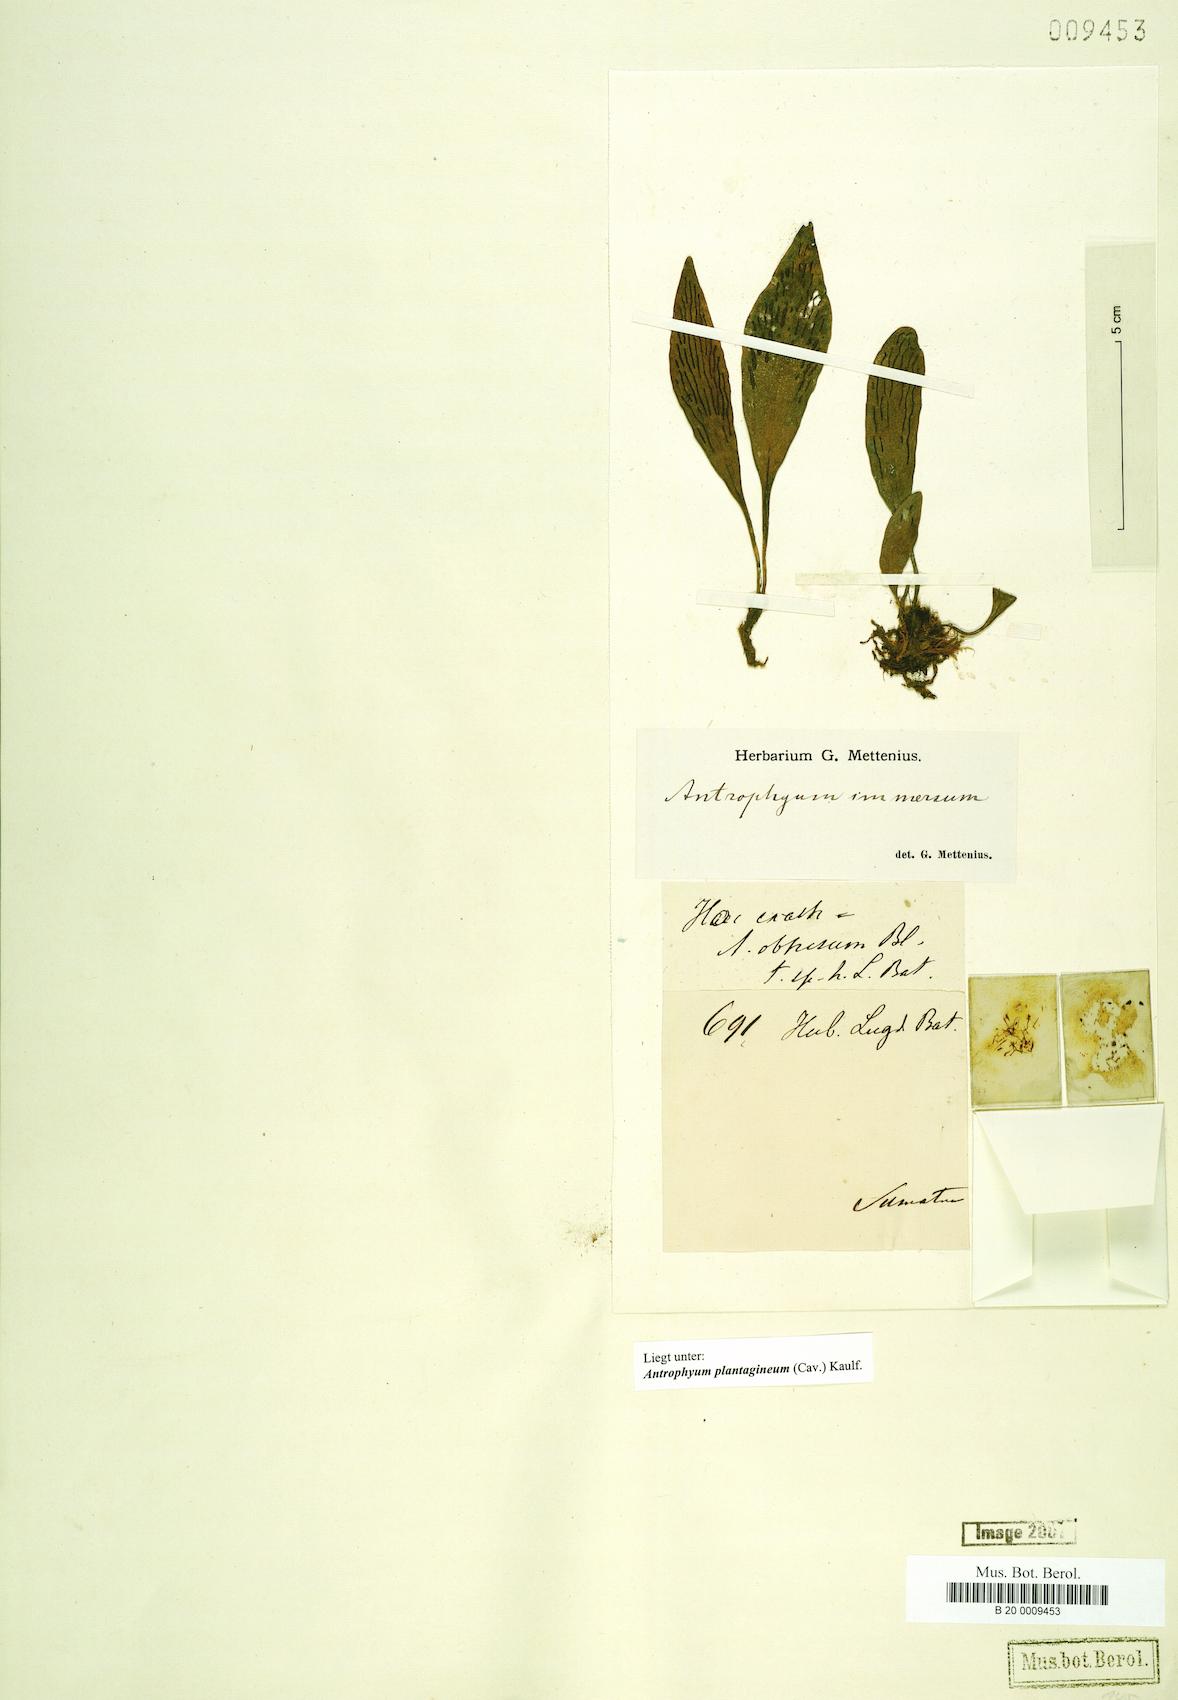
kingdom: Plantae
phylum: Tracheophyta
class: Polypodiopsida
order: Polypodiales
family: Pteridaceae
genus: Antrophyum
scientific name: Antrophyum plantagineum
